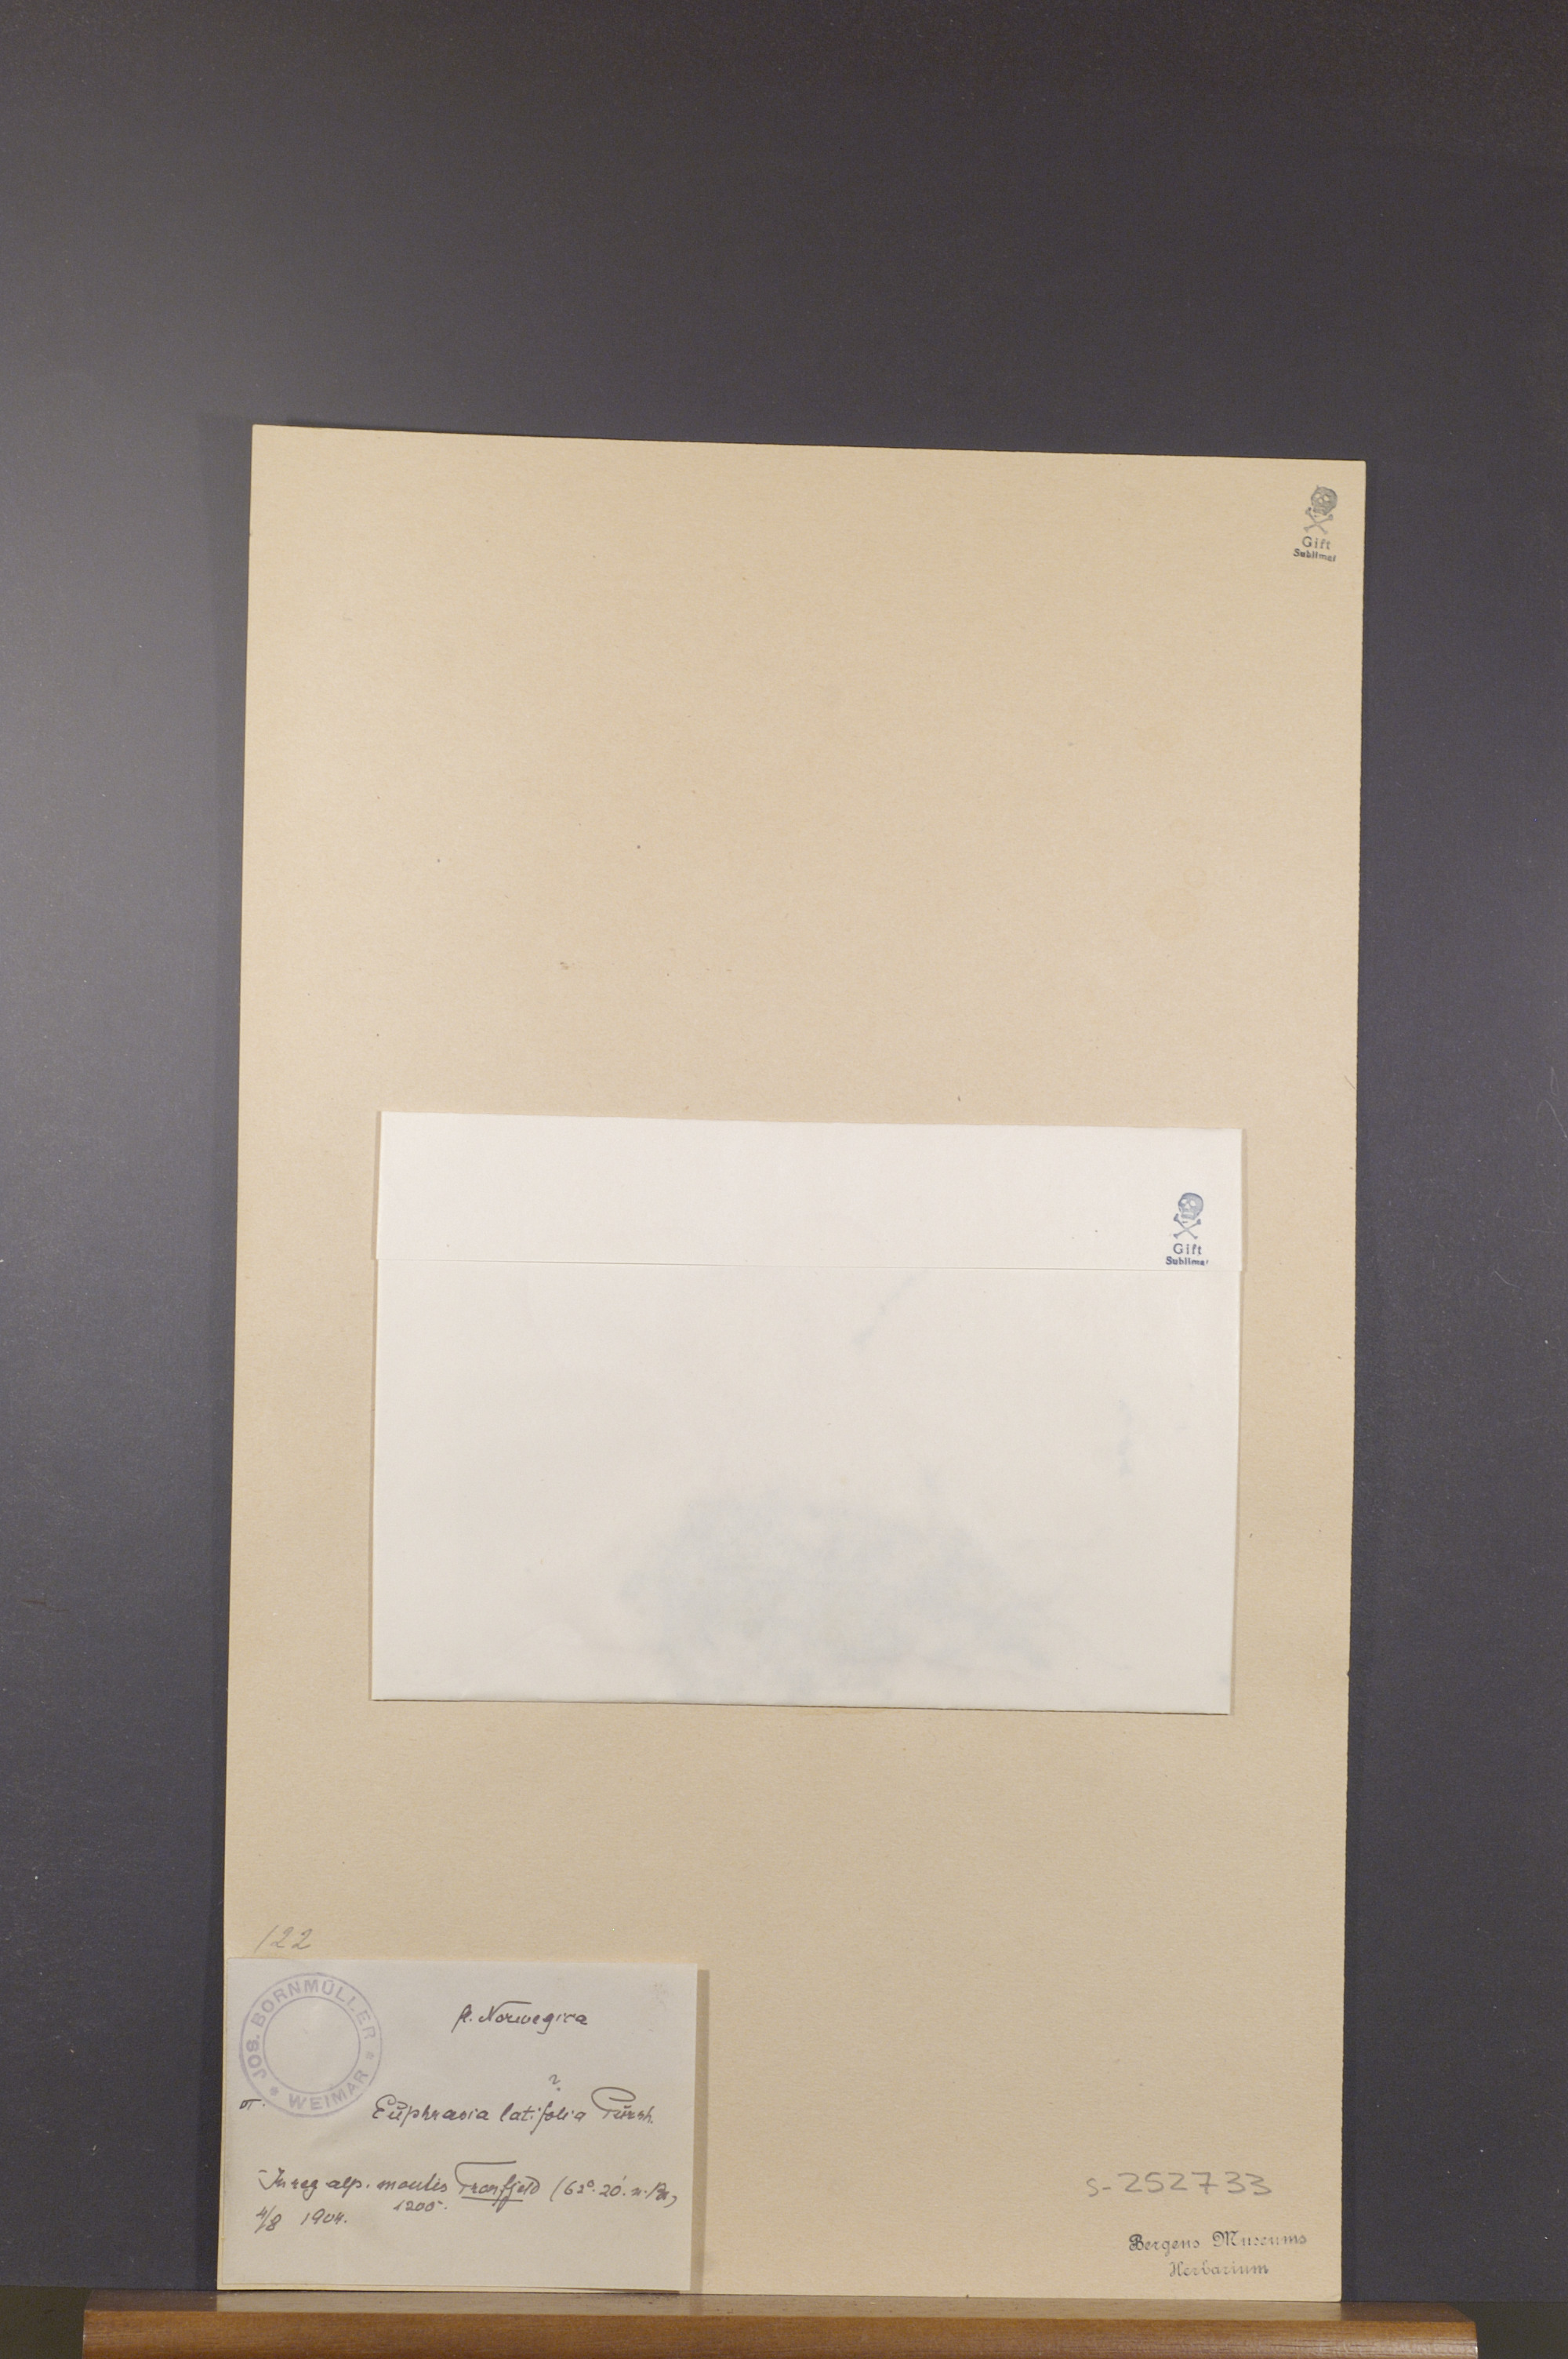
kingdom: Plantae
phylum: Tracheophyta
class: Magnoliopsida
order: Lamiales
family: Orobanchaceae
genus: Euphrasia
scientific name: Euphrasia wettsteinii
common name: Wettstein's eyebright
